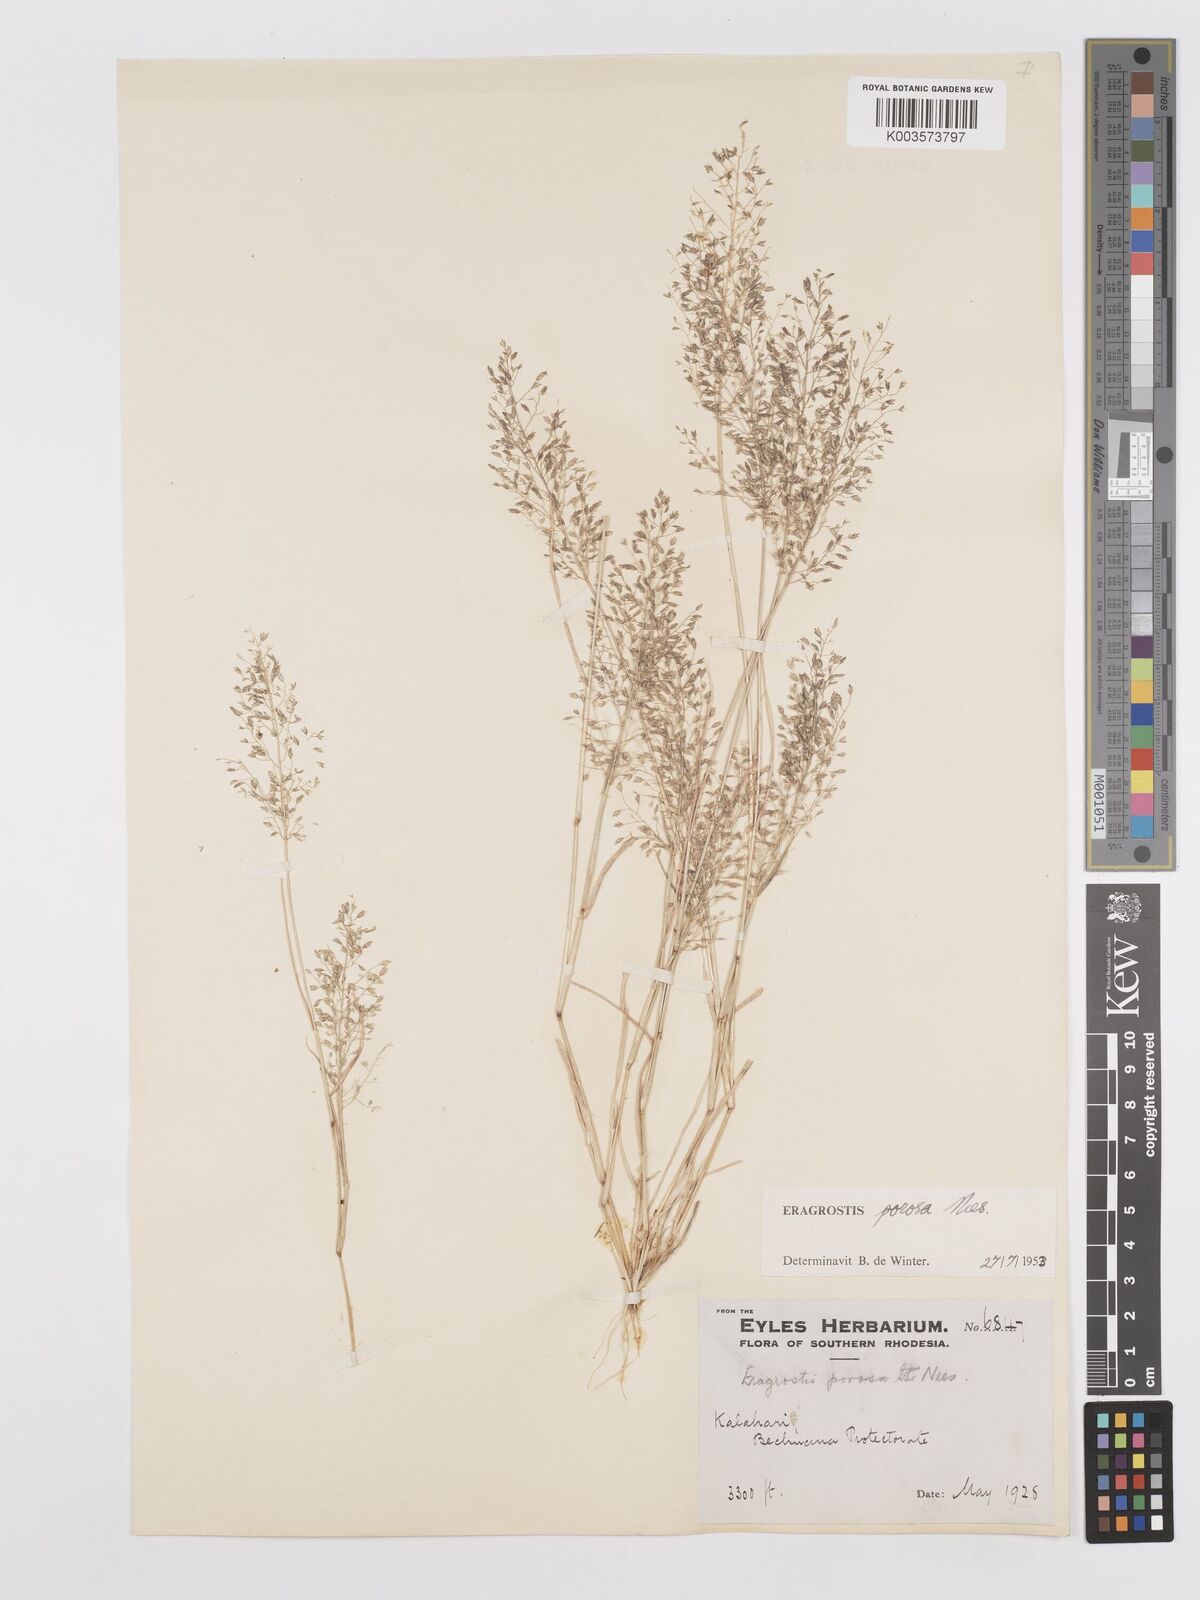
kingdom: Plantae
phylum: Tracheophyta
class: Liliopsida
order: Poales
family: Poaceae
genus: Eragrostis
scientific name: Eragrostis porosa
